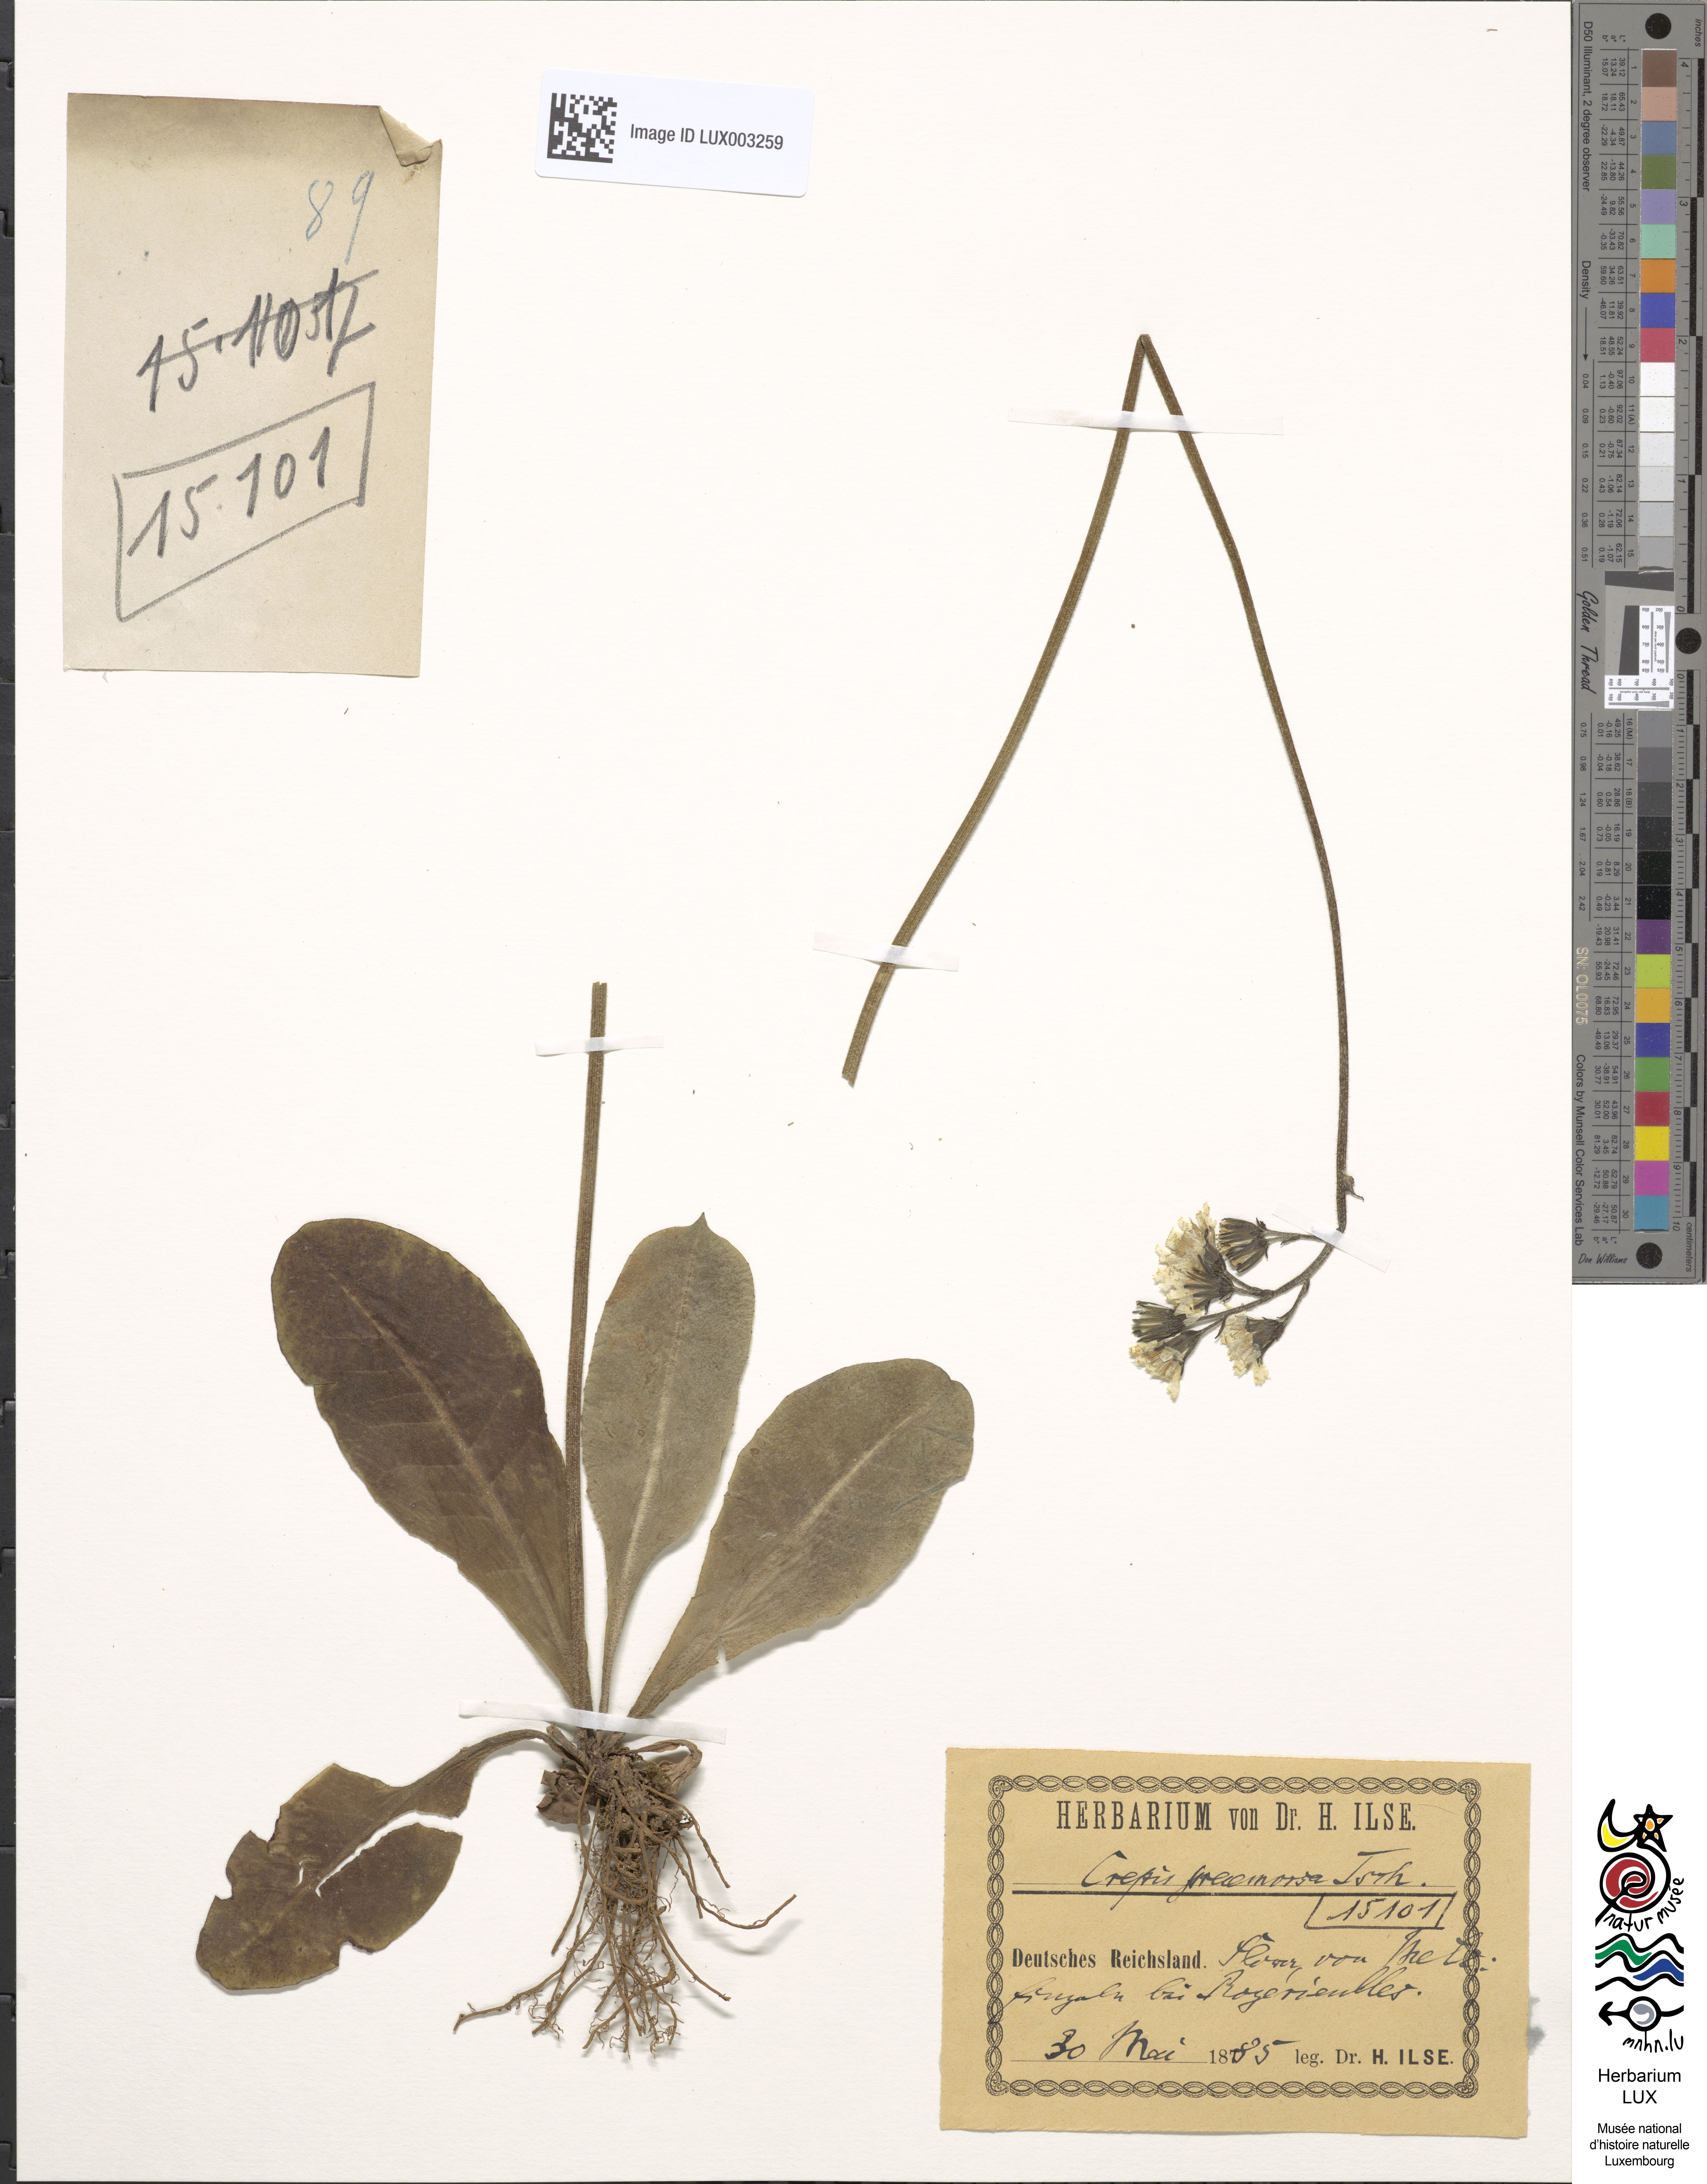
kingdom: Plantae
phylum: Tracheophyta
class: Magnoliopsida
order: Asterales
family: Asteraceae
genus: Crepis
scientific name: Crepis praemorsa
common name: Leafless hawk's-beard
